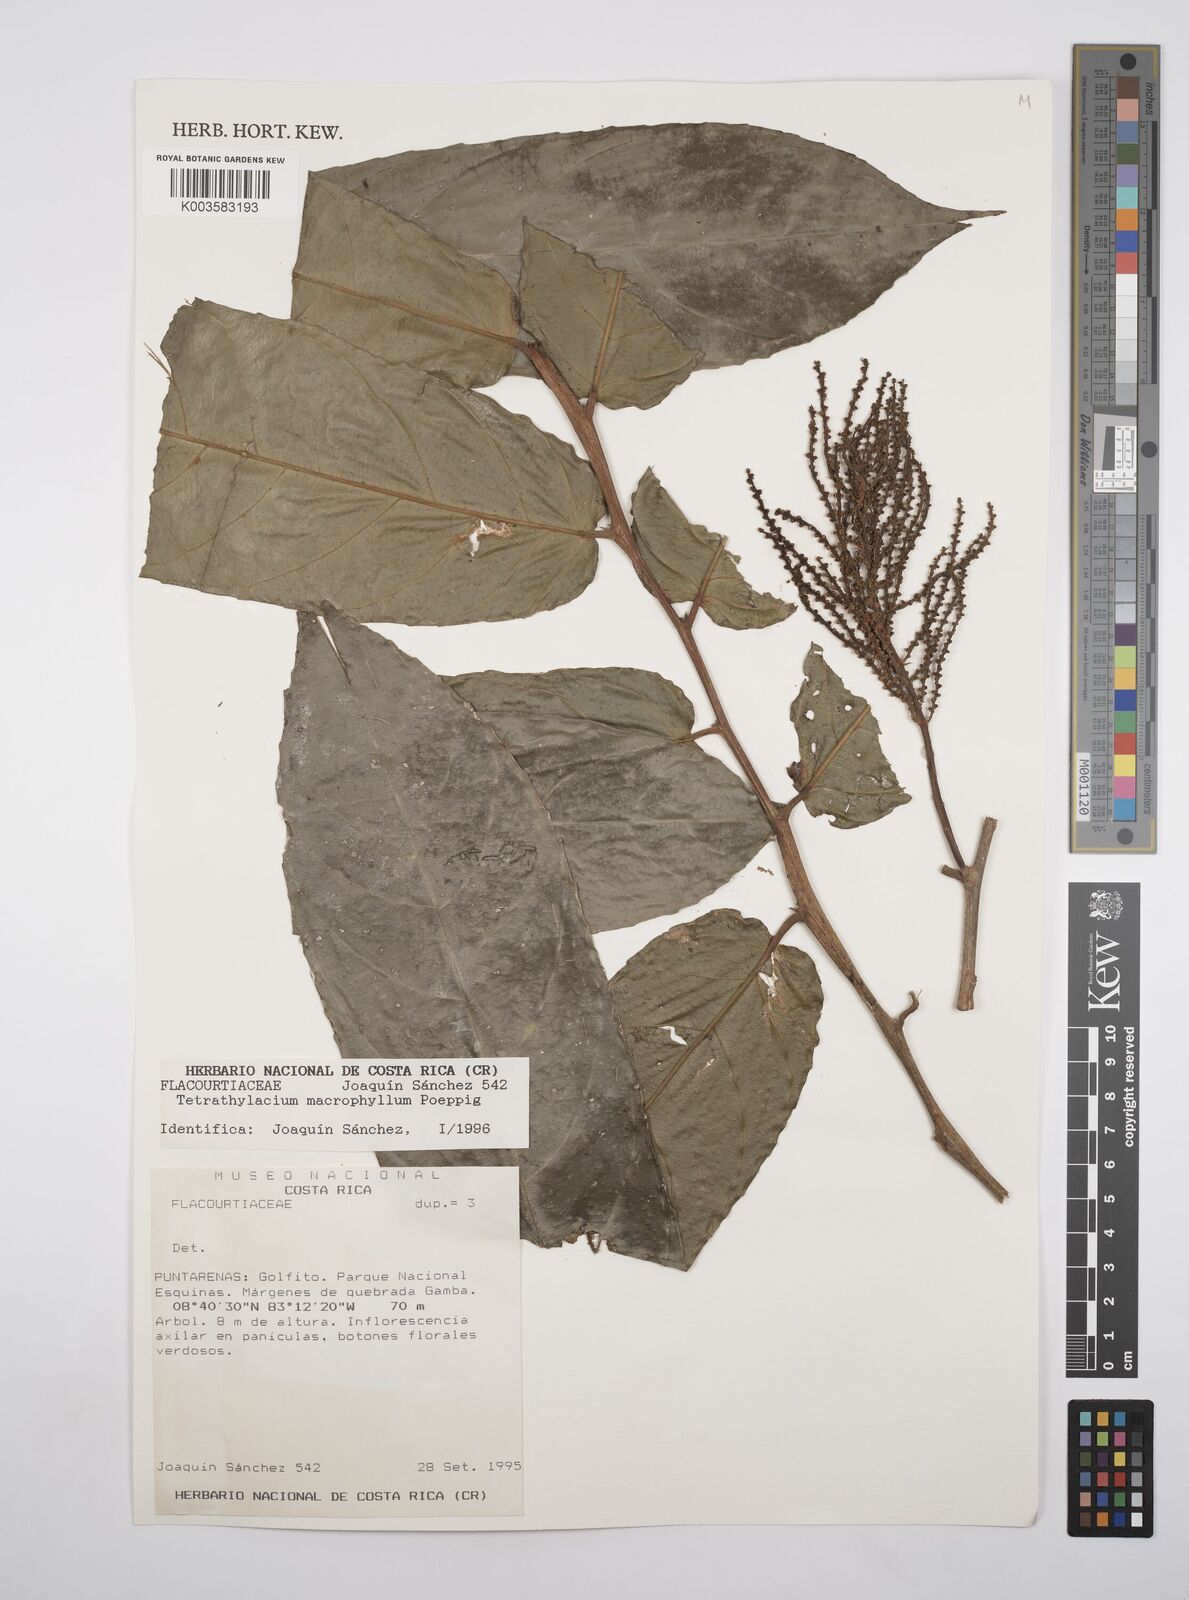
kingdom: Plantae
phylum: Tracheophyta
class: Magnoliopsida
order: Malpighiales
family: Salicaceae
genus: Tetrathylacium
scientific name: Tetrathylacium macrophyllum
